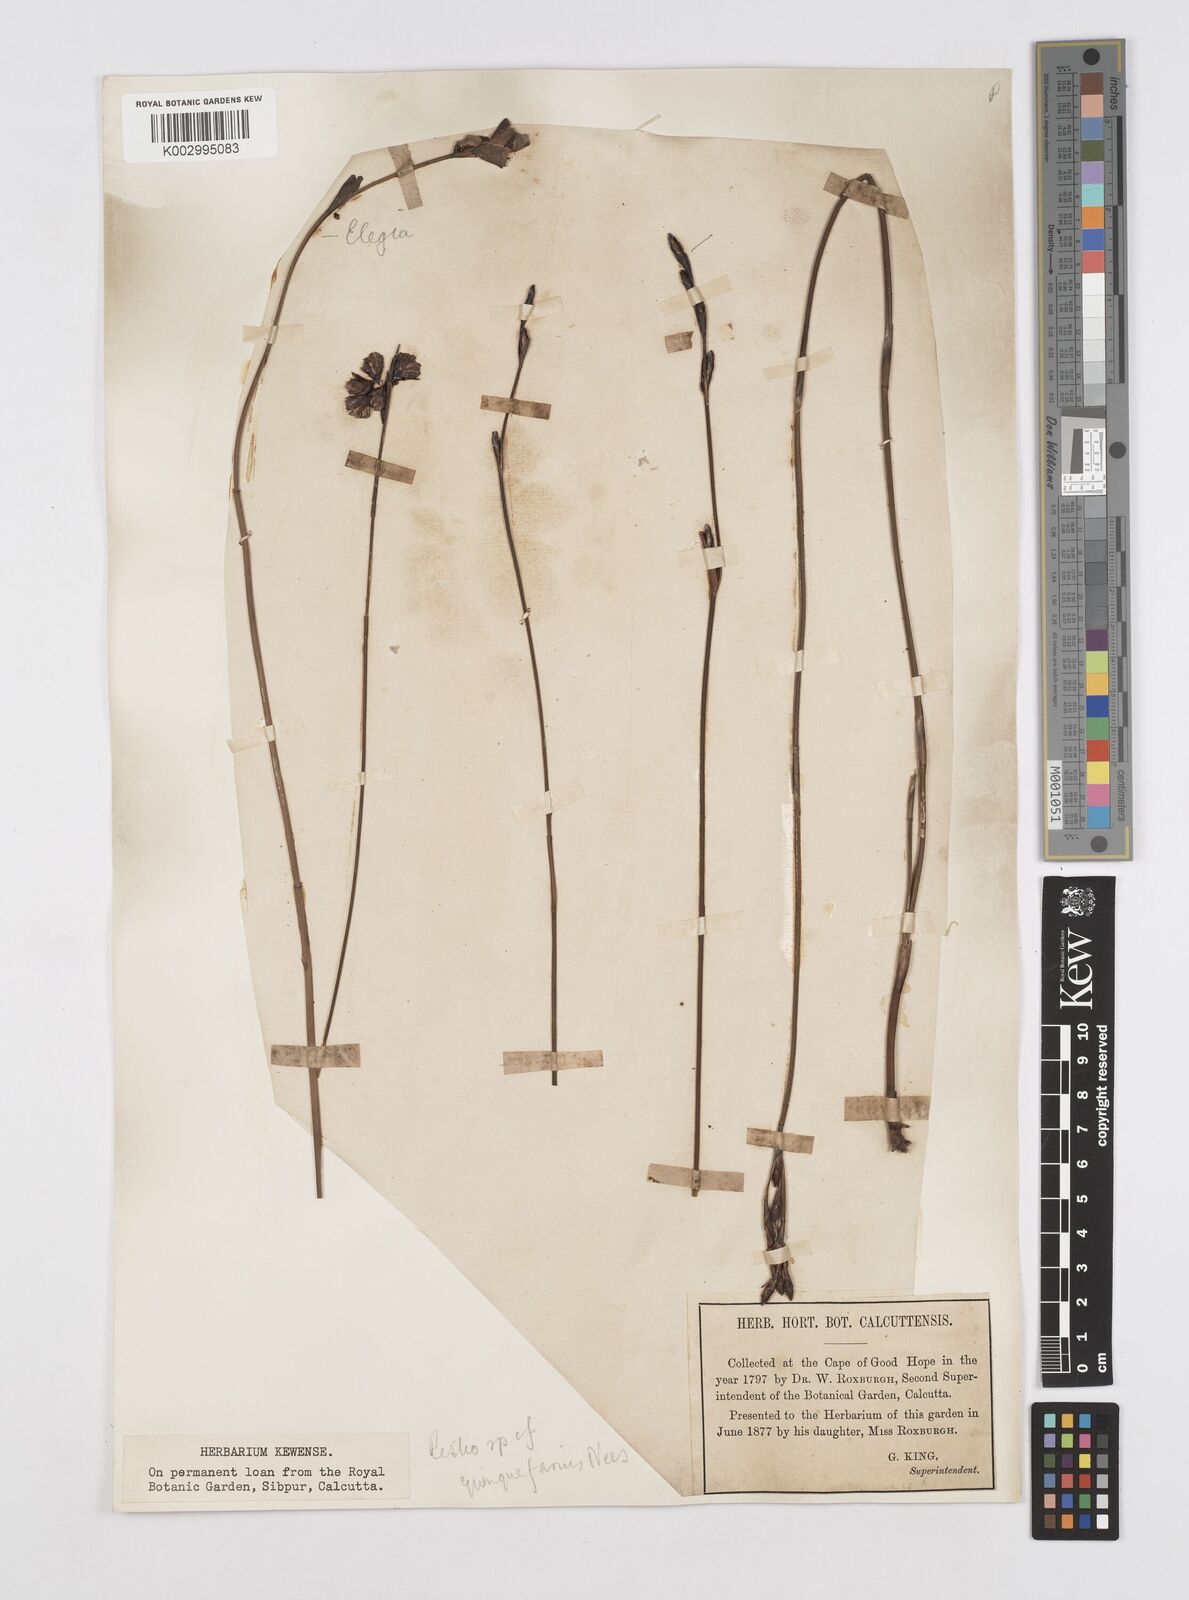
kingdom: Plantae
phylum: Tracheophyta
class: Liliopsida
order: Poales
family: Restionaceae
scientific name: Restionaceae
